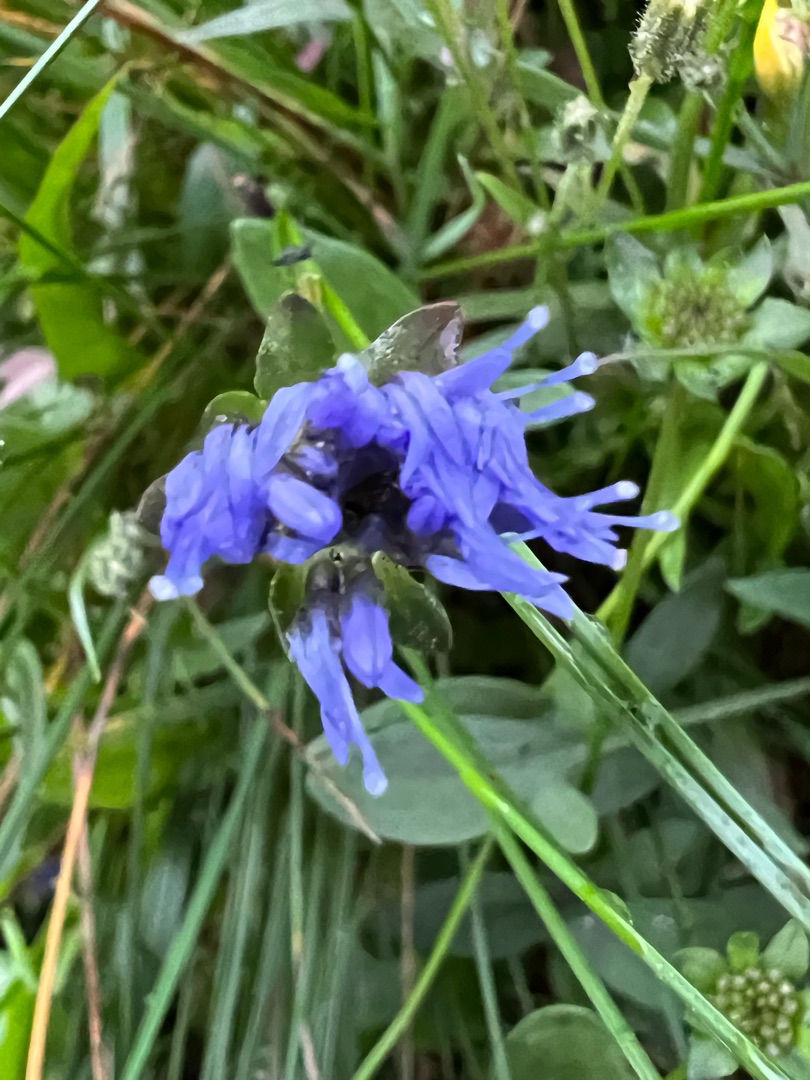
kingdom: Plantae
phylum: Tracheophyta
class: Magnoliopsida
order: Asterales
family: Campanulaceae
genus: Jasione
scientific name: Jasione montana
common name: Blåmunke
